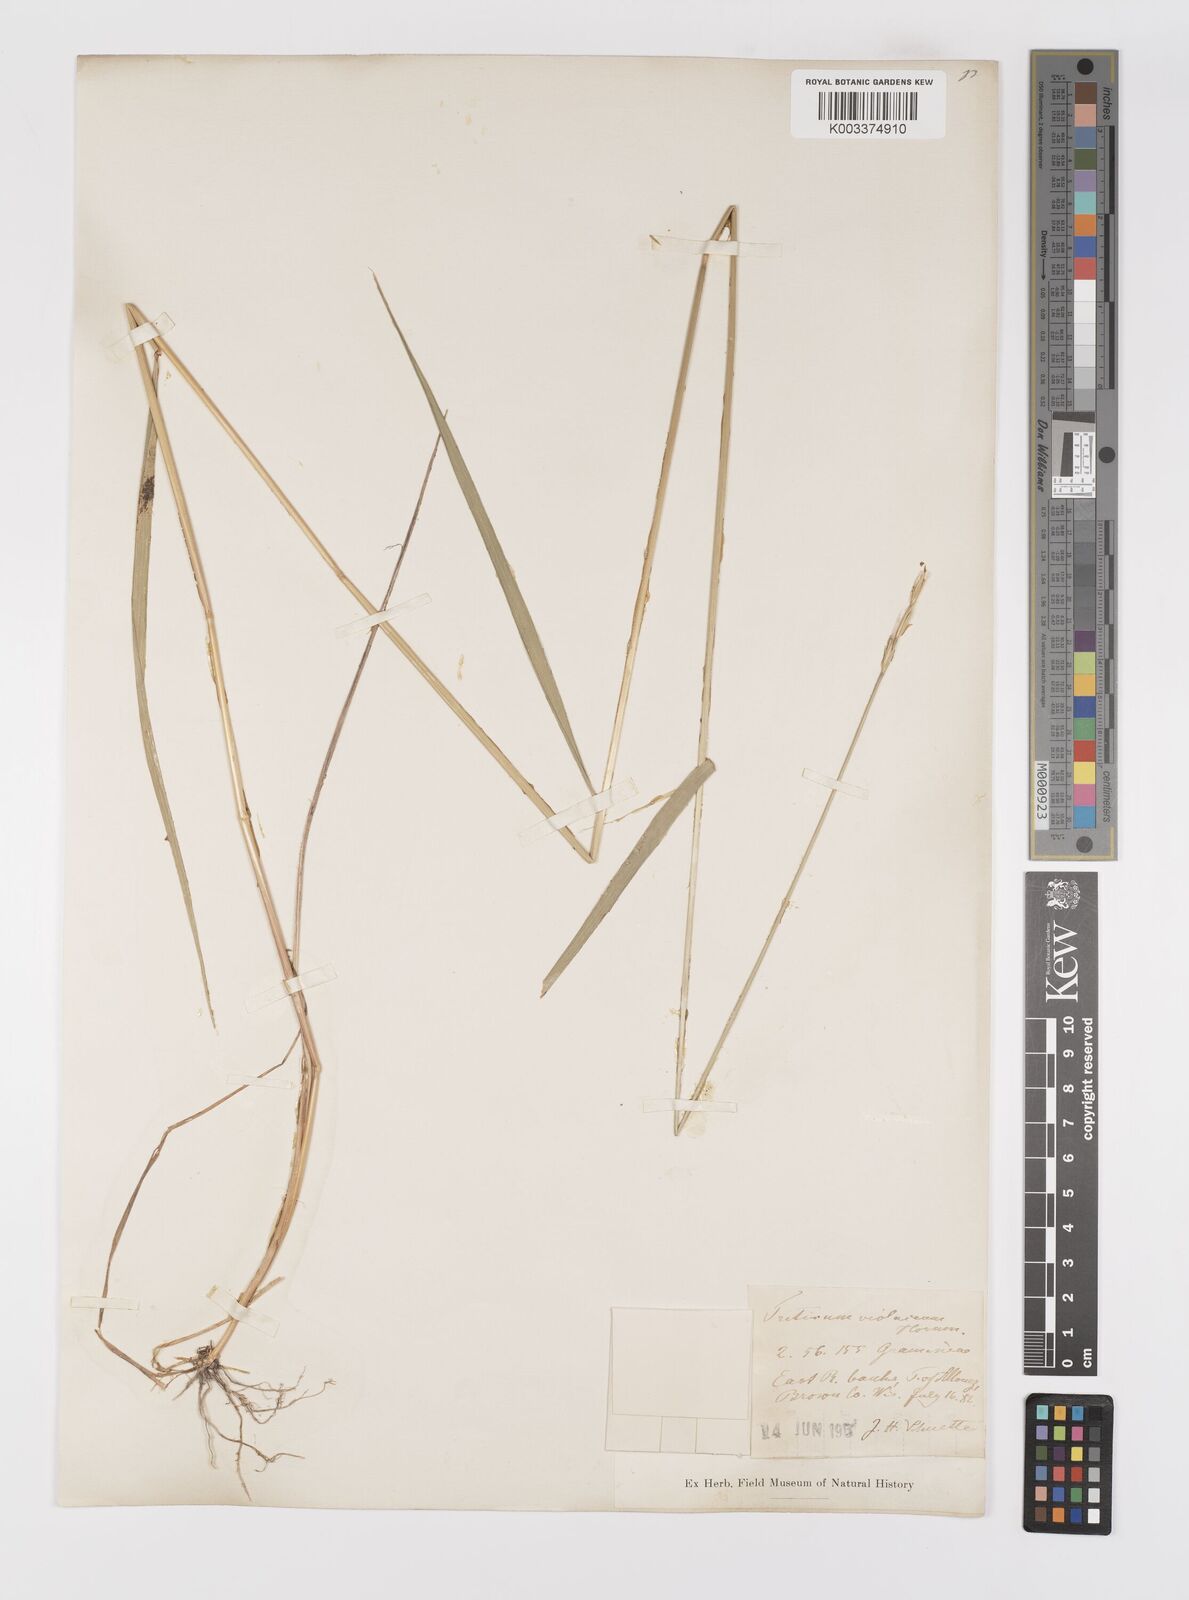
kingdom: Plantae
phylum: Tracheophyta
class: Liliopsida
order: Poales
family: Poaceae
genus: Elymus
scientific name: Elymus violaceus
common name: Arctic wheatgrass
